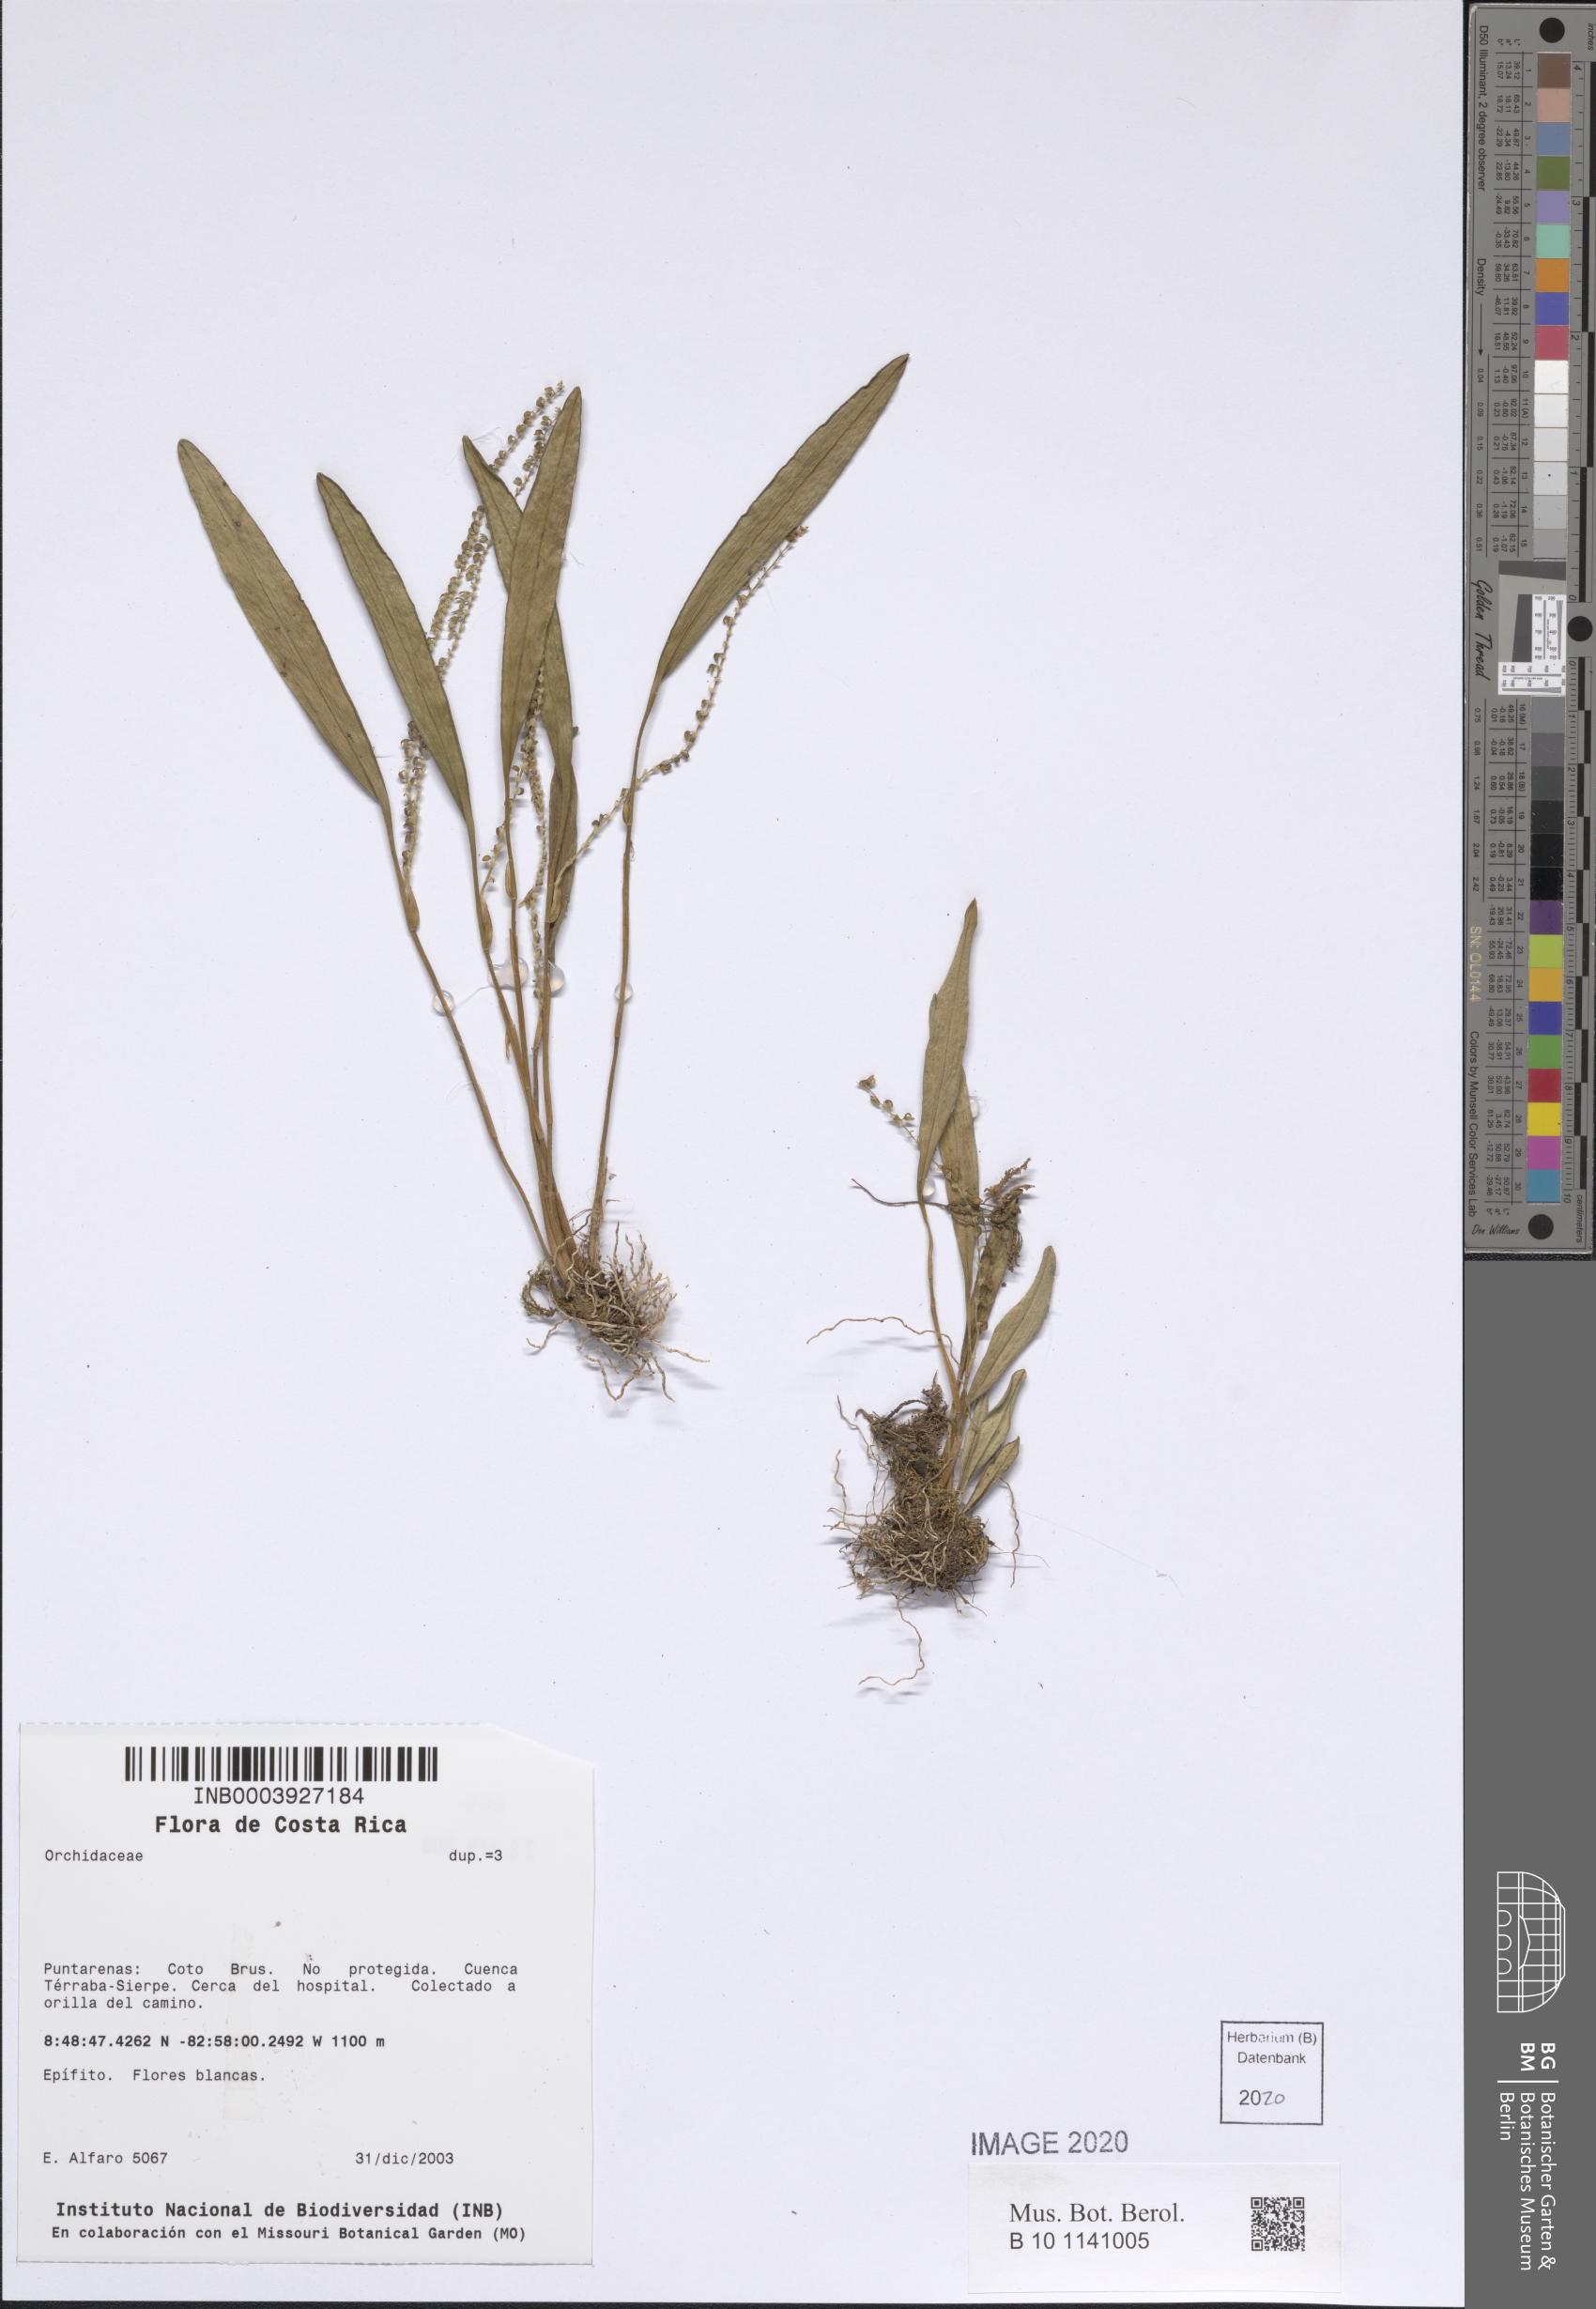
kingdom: Plantae
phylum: Tracheophyta
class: Liliopsida
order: Asparagales
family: Orchidaceae
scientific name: Orchidaceae
